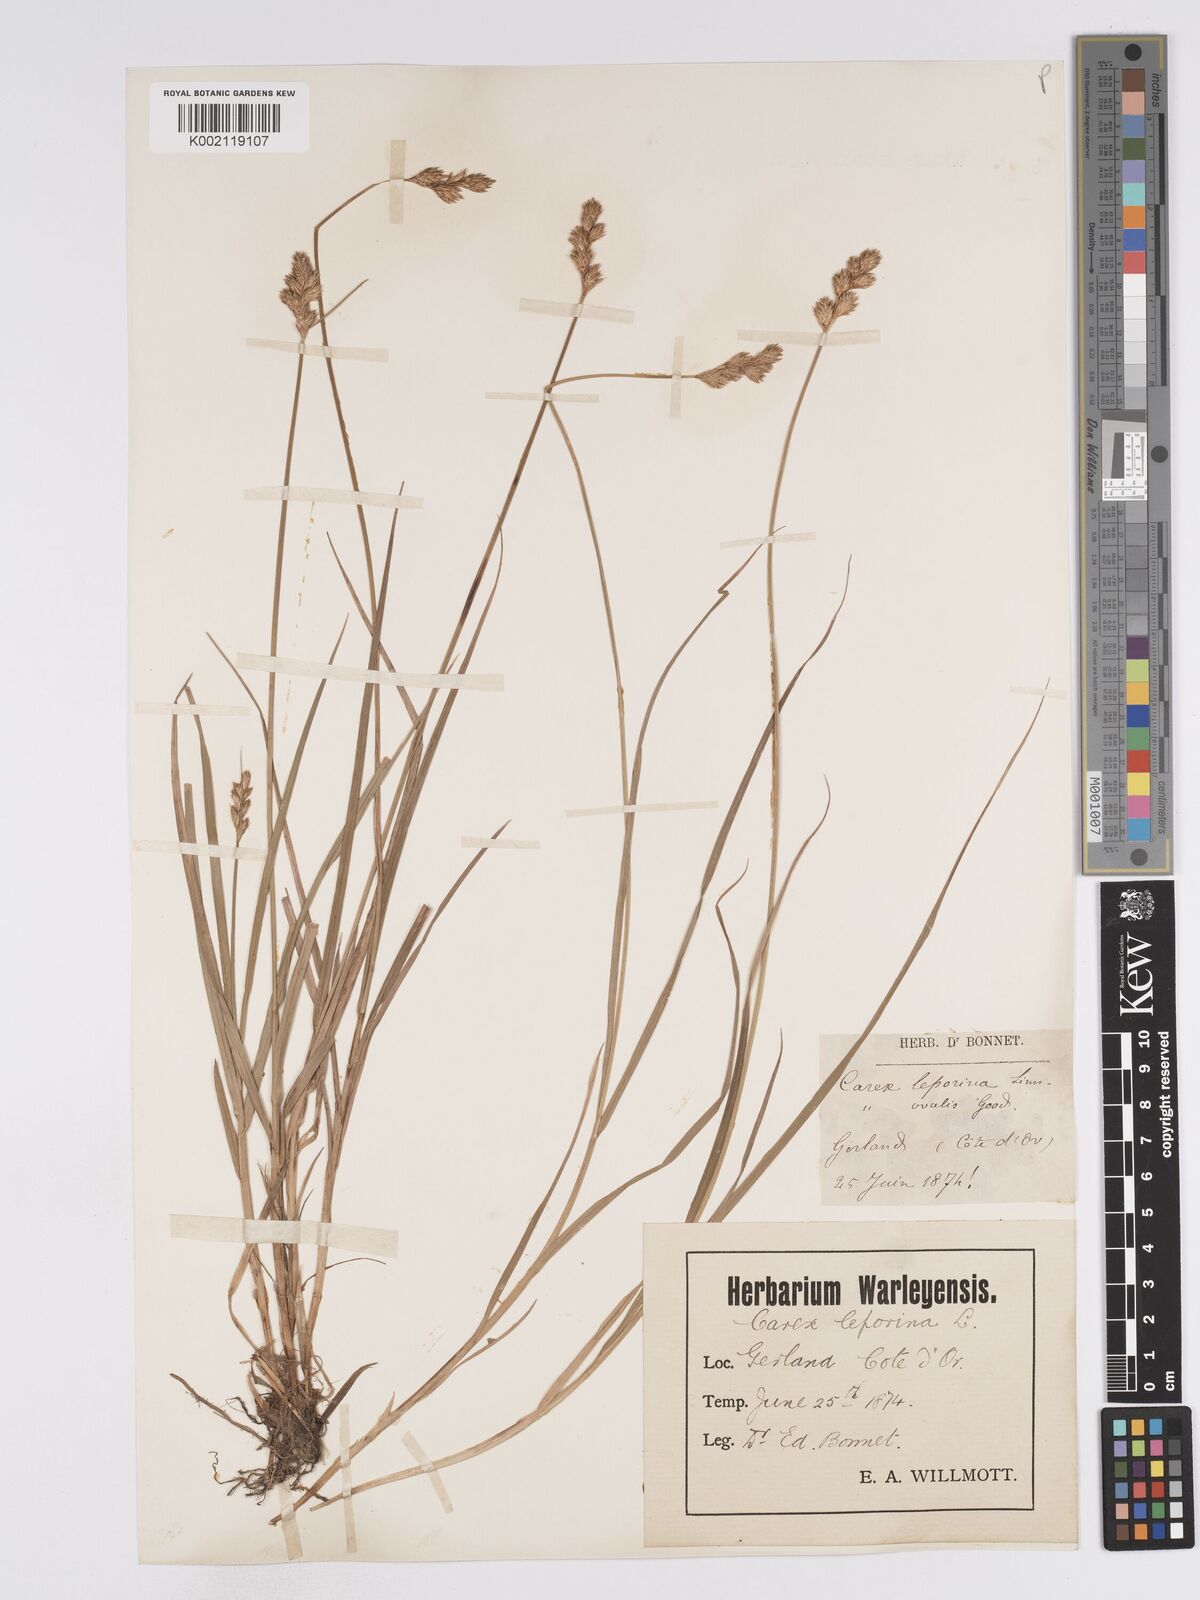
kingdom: Plantae
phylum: Tracheophyta
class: Liliopsida
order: Poales
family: Cyperaceae
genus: Carex
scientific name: Carex leporina
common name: Oval sedge
